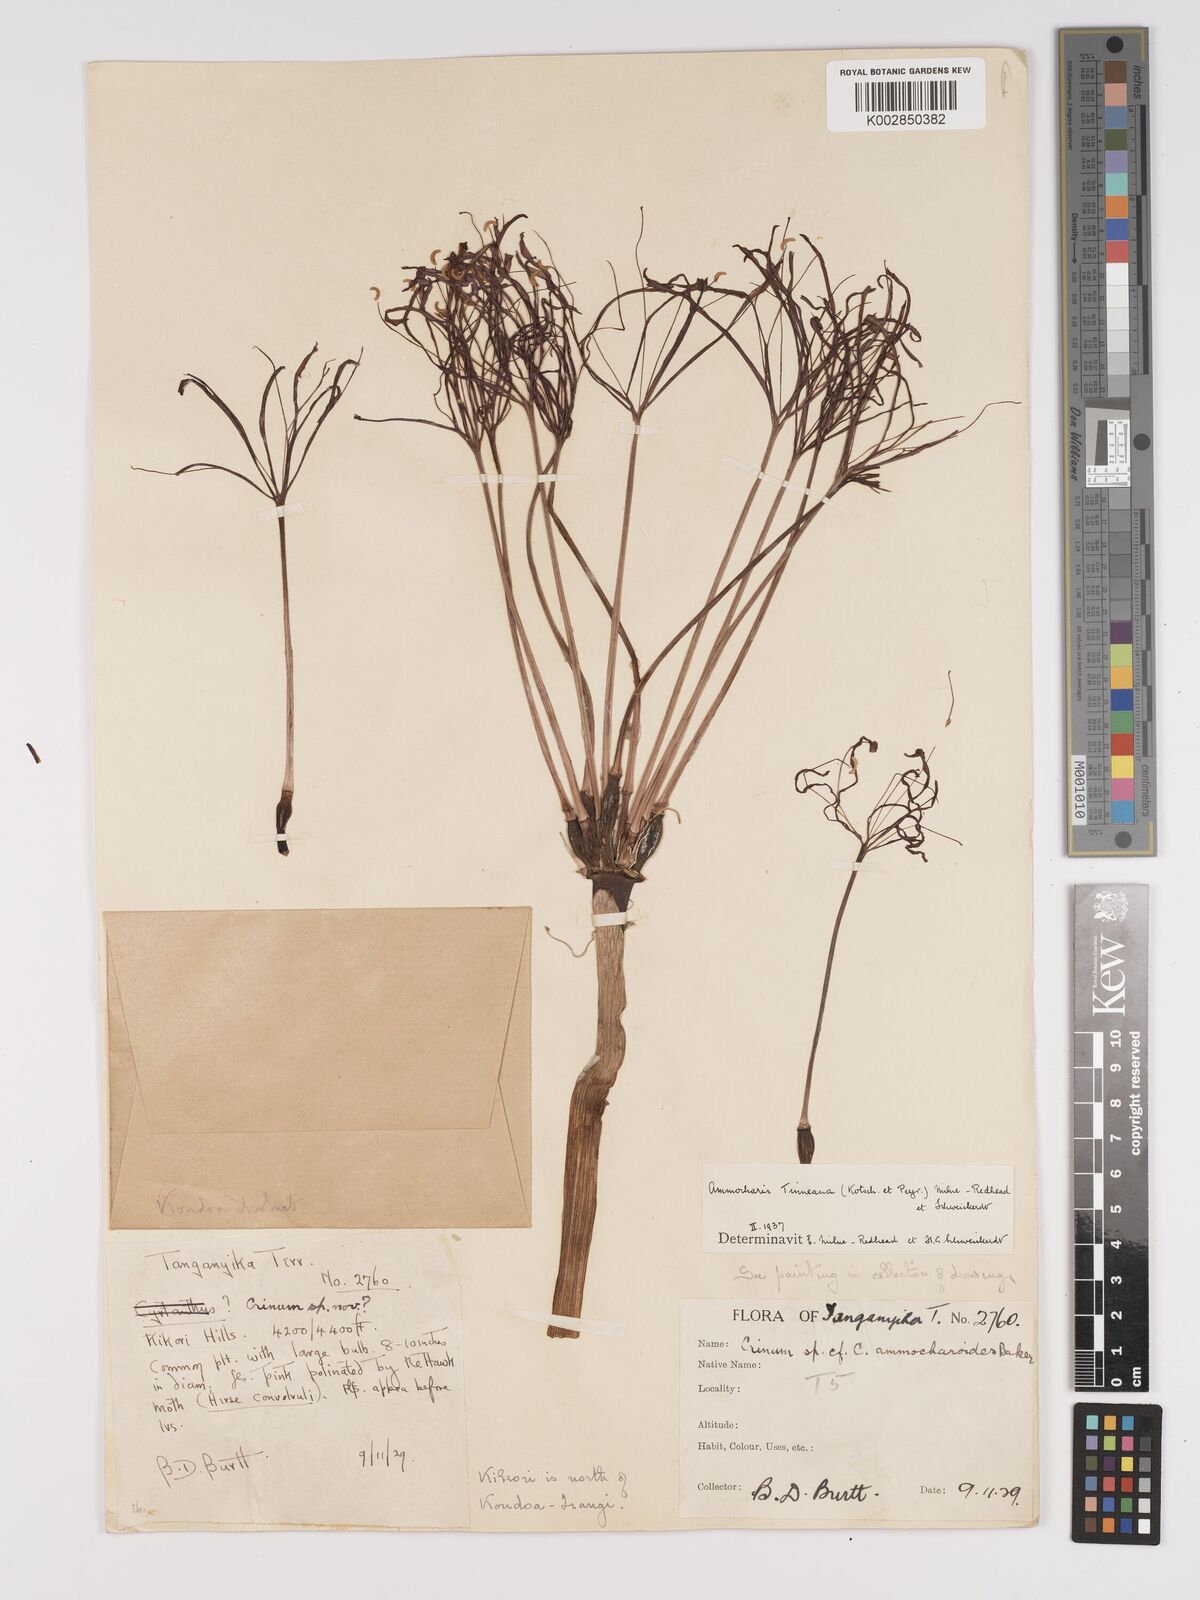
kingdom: Plantae
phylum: Tracheophyta
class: Liliopsida
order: Asparagales
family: Amaryllidaceae
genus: Ammocharis
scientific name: Ammocharis tinneana
